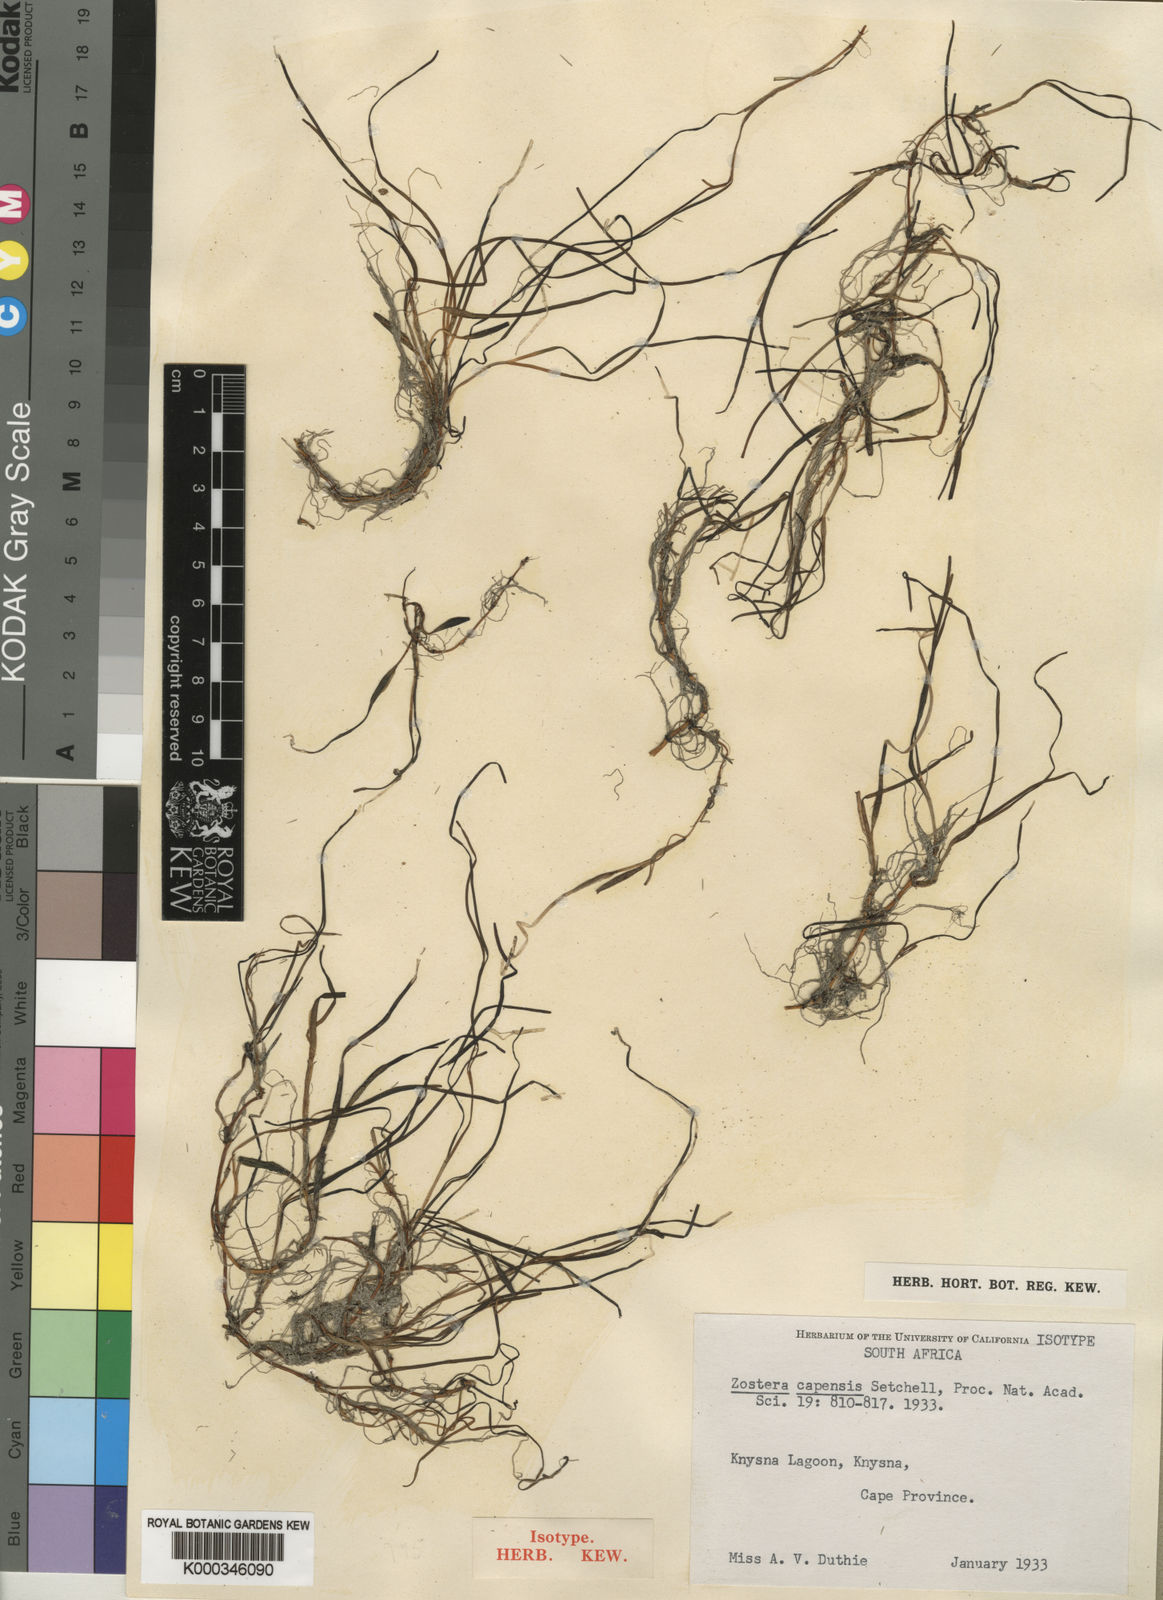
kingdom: Plantae
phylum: Tracheophyta
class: Liliopsida
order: Alismatales
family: Zosteraceae
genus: Zostera
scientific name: Zostera capensis
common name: Species code: zp
